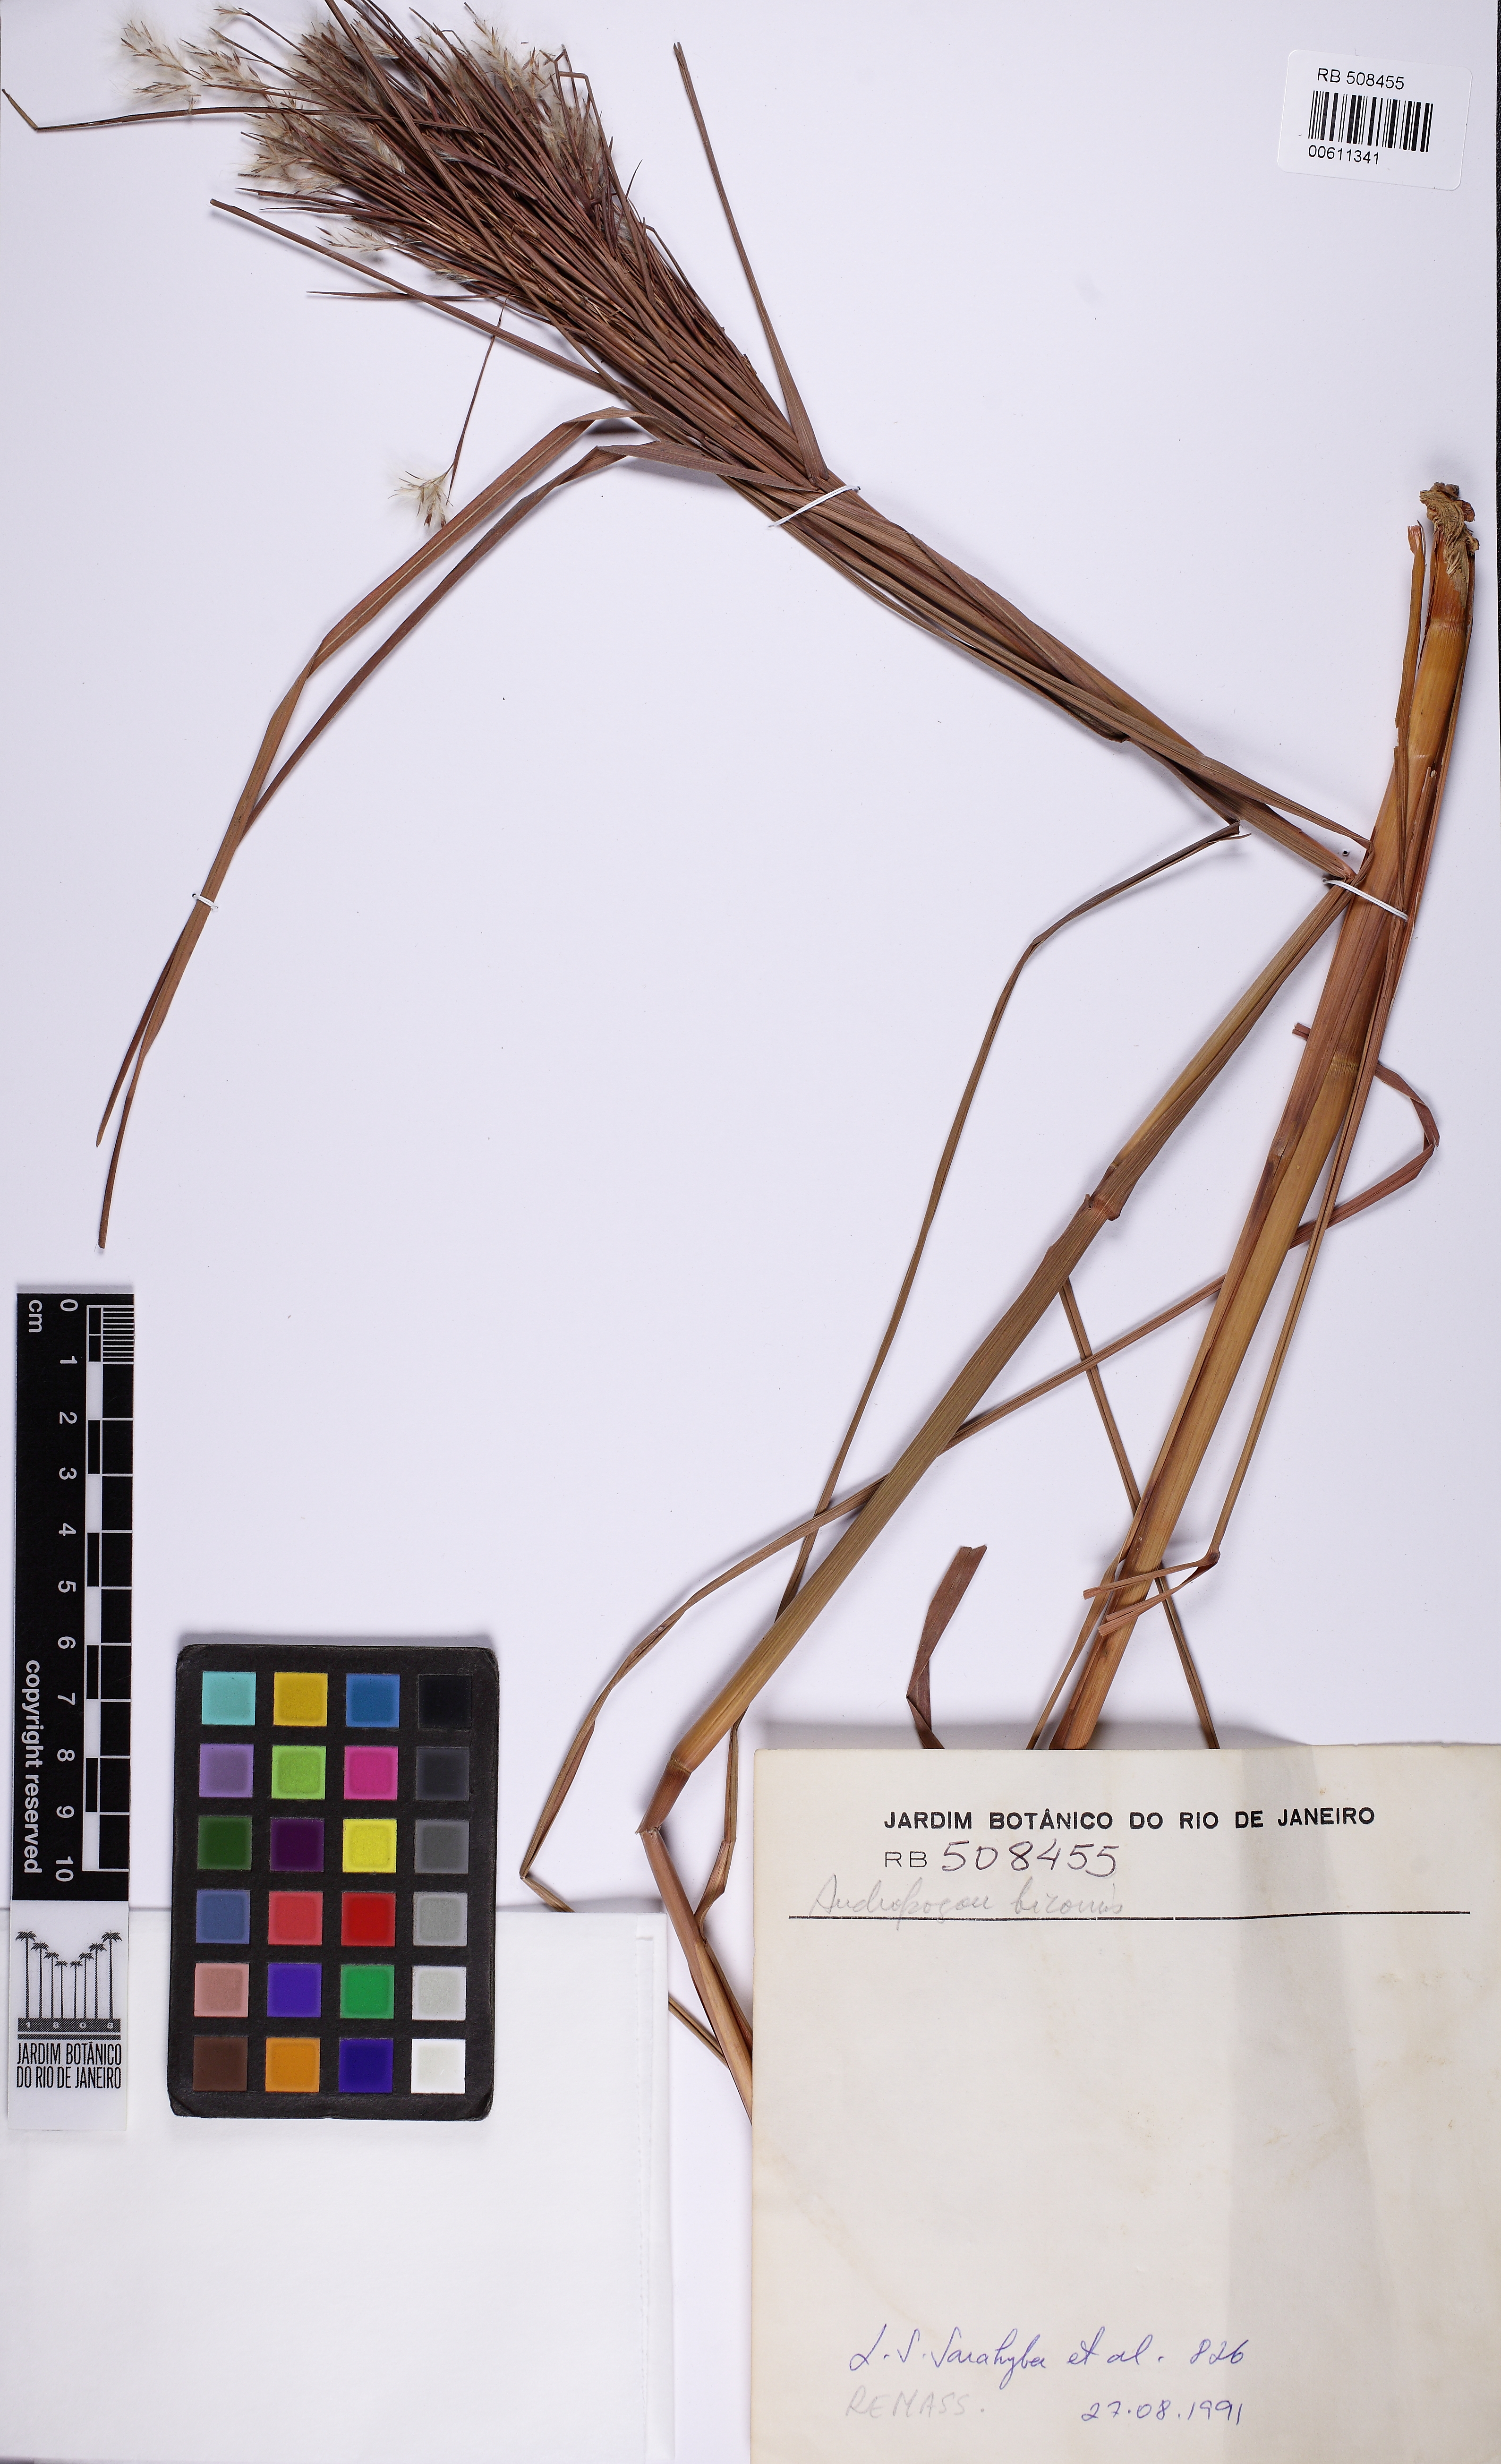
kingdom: Plantae
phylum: Tracheophyta
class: Liliopsida
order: Poales
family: Poaceae
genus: Andropogon
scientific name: Andropogon bicornis
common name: West indian foxtail grass
